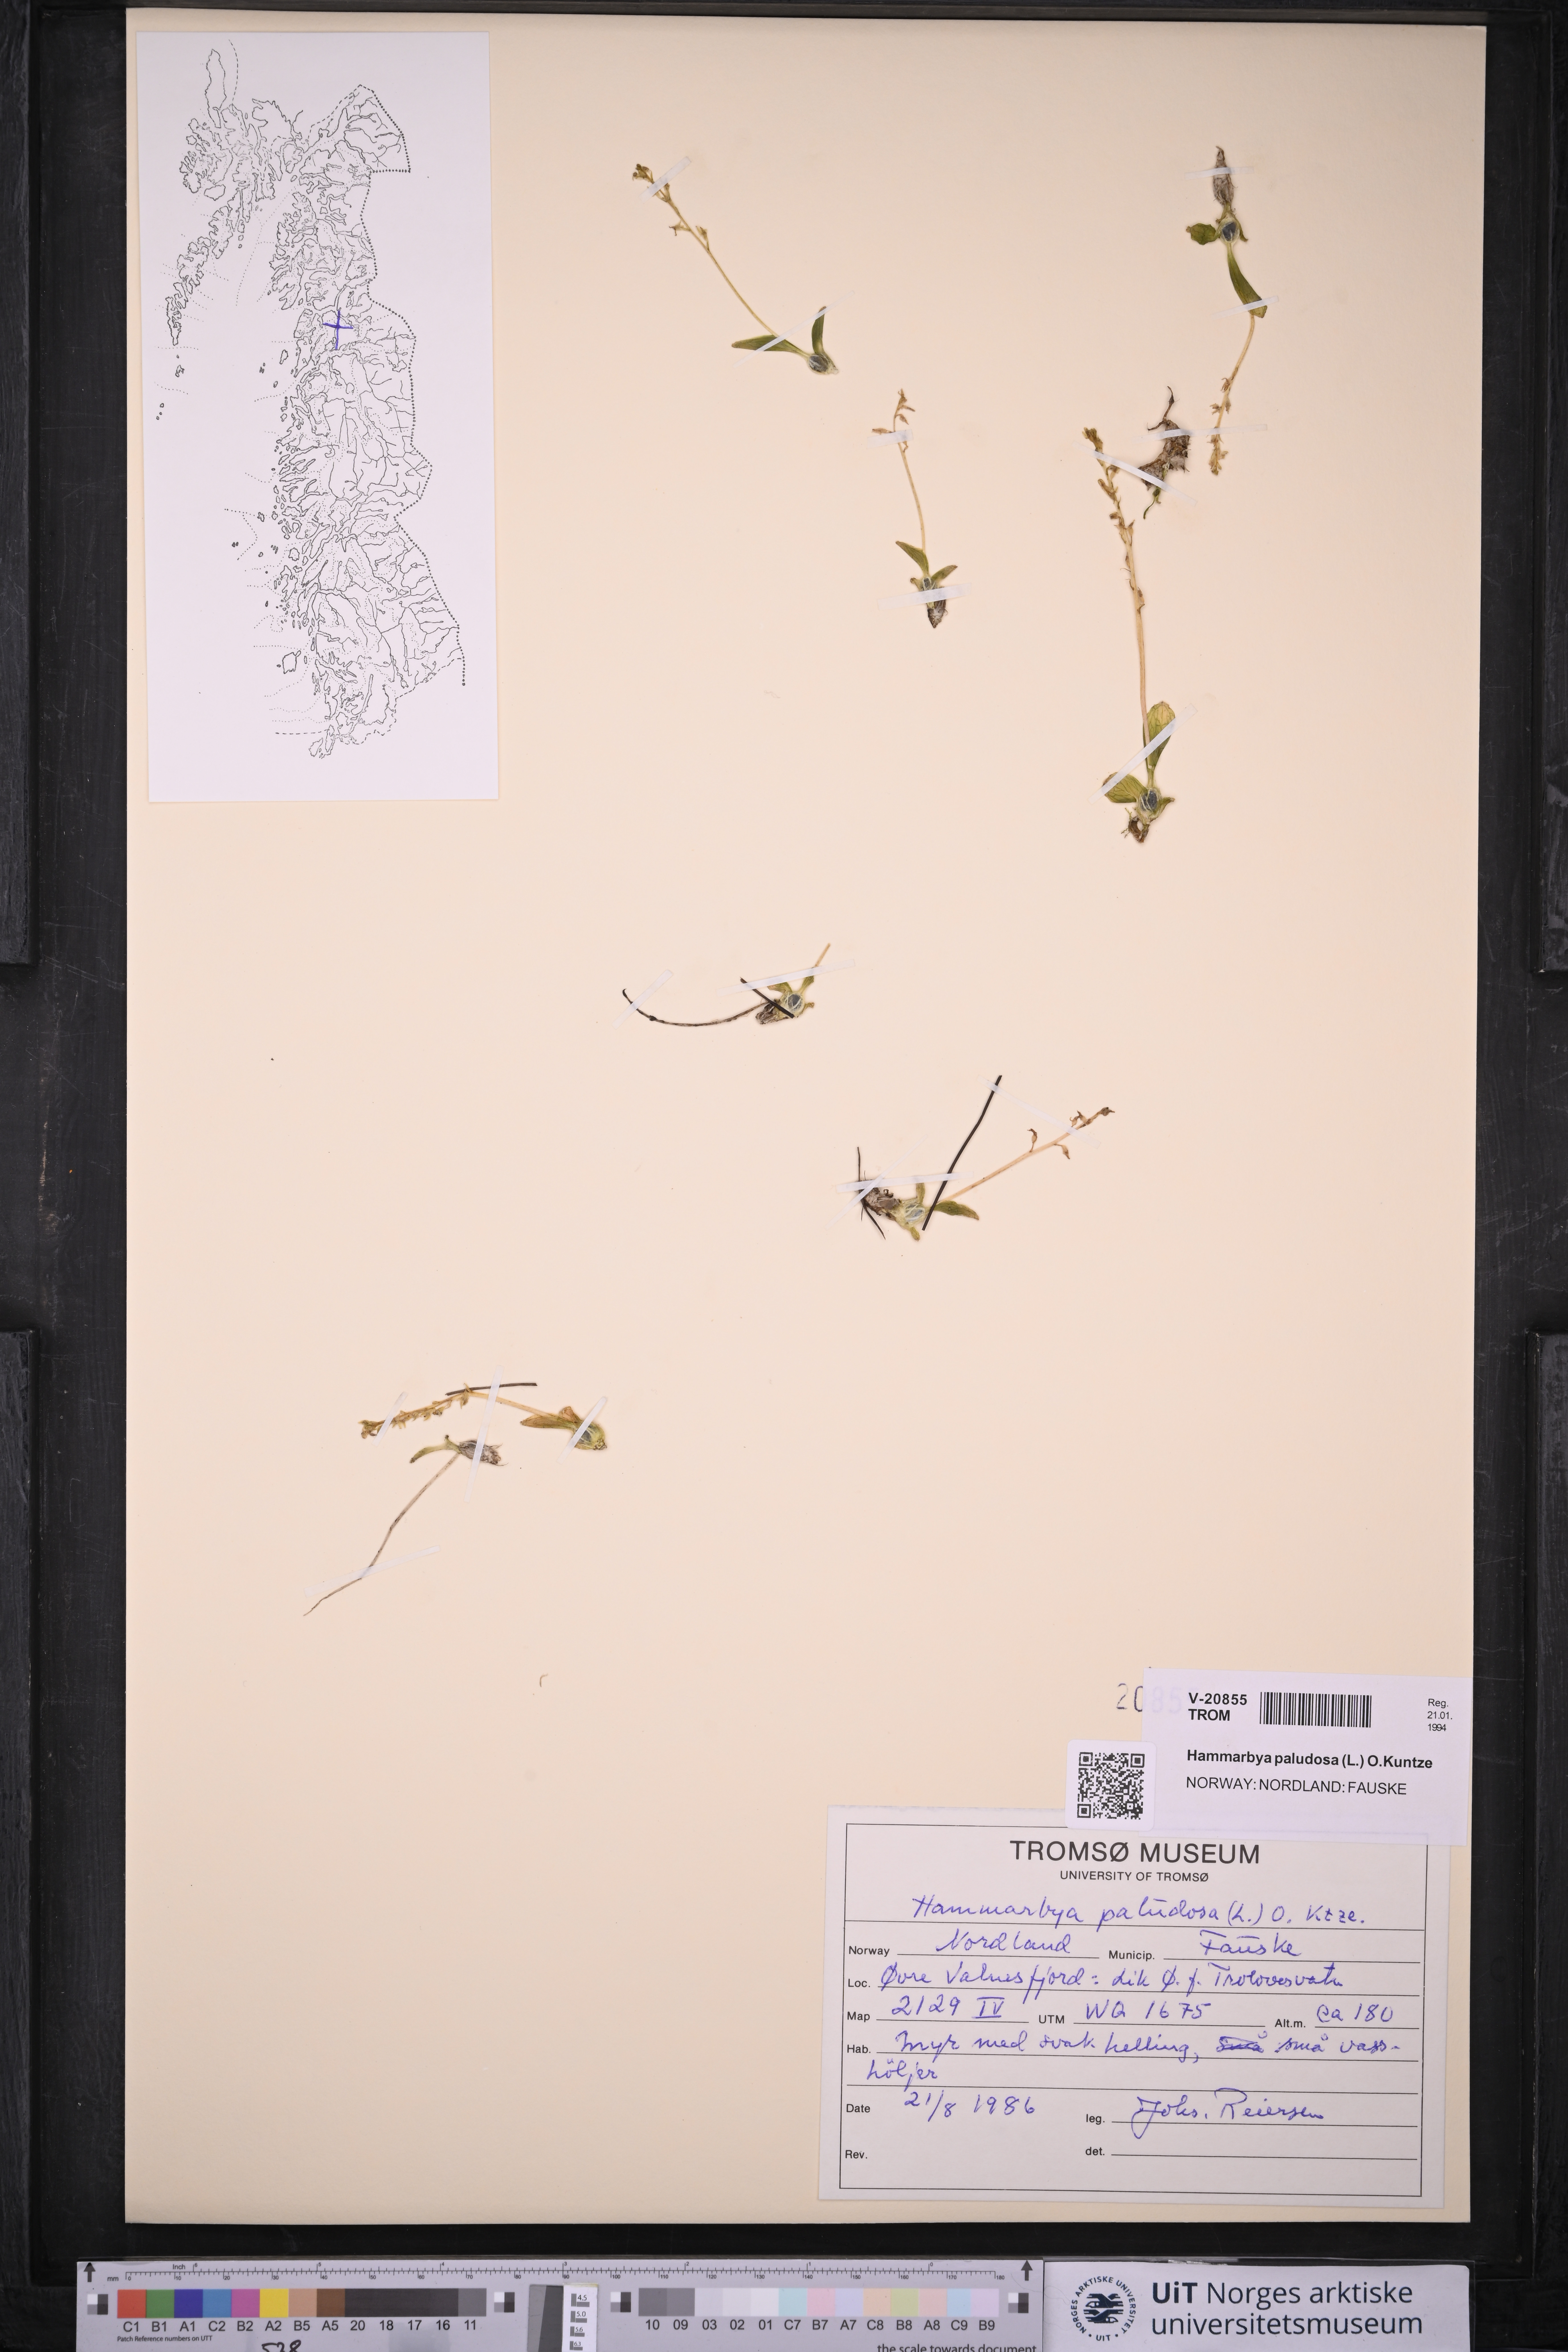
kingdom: Plantae
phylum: Tracheophyta
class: Liliopsida
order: Asparagales
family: Orchidaceae
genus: Hammarbya
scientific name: Hammarbya paludosa
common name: Bog orchid
